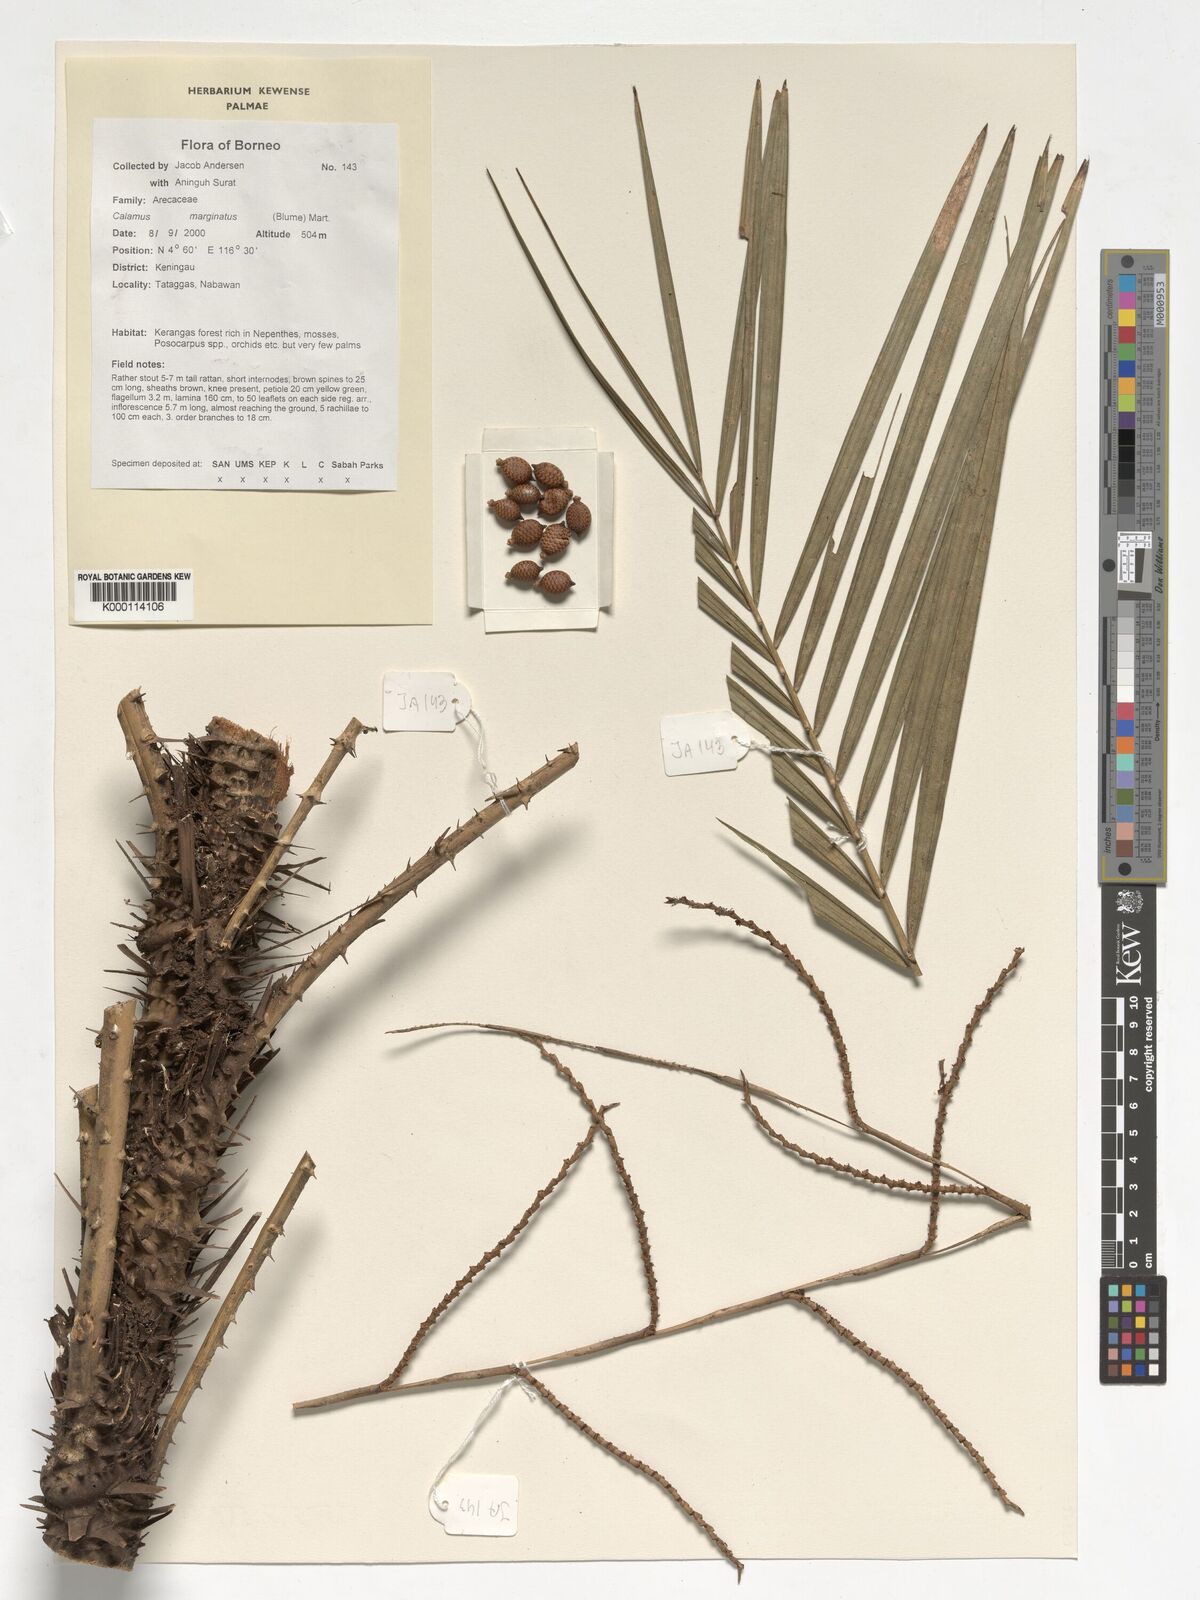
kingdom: Plantae
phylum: Tracheophyta
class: Liliopsida
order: Arecales
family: Arecaceae
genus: Calamus
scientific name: Calamus
